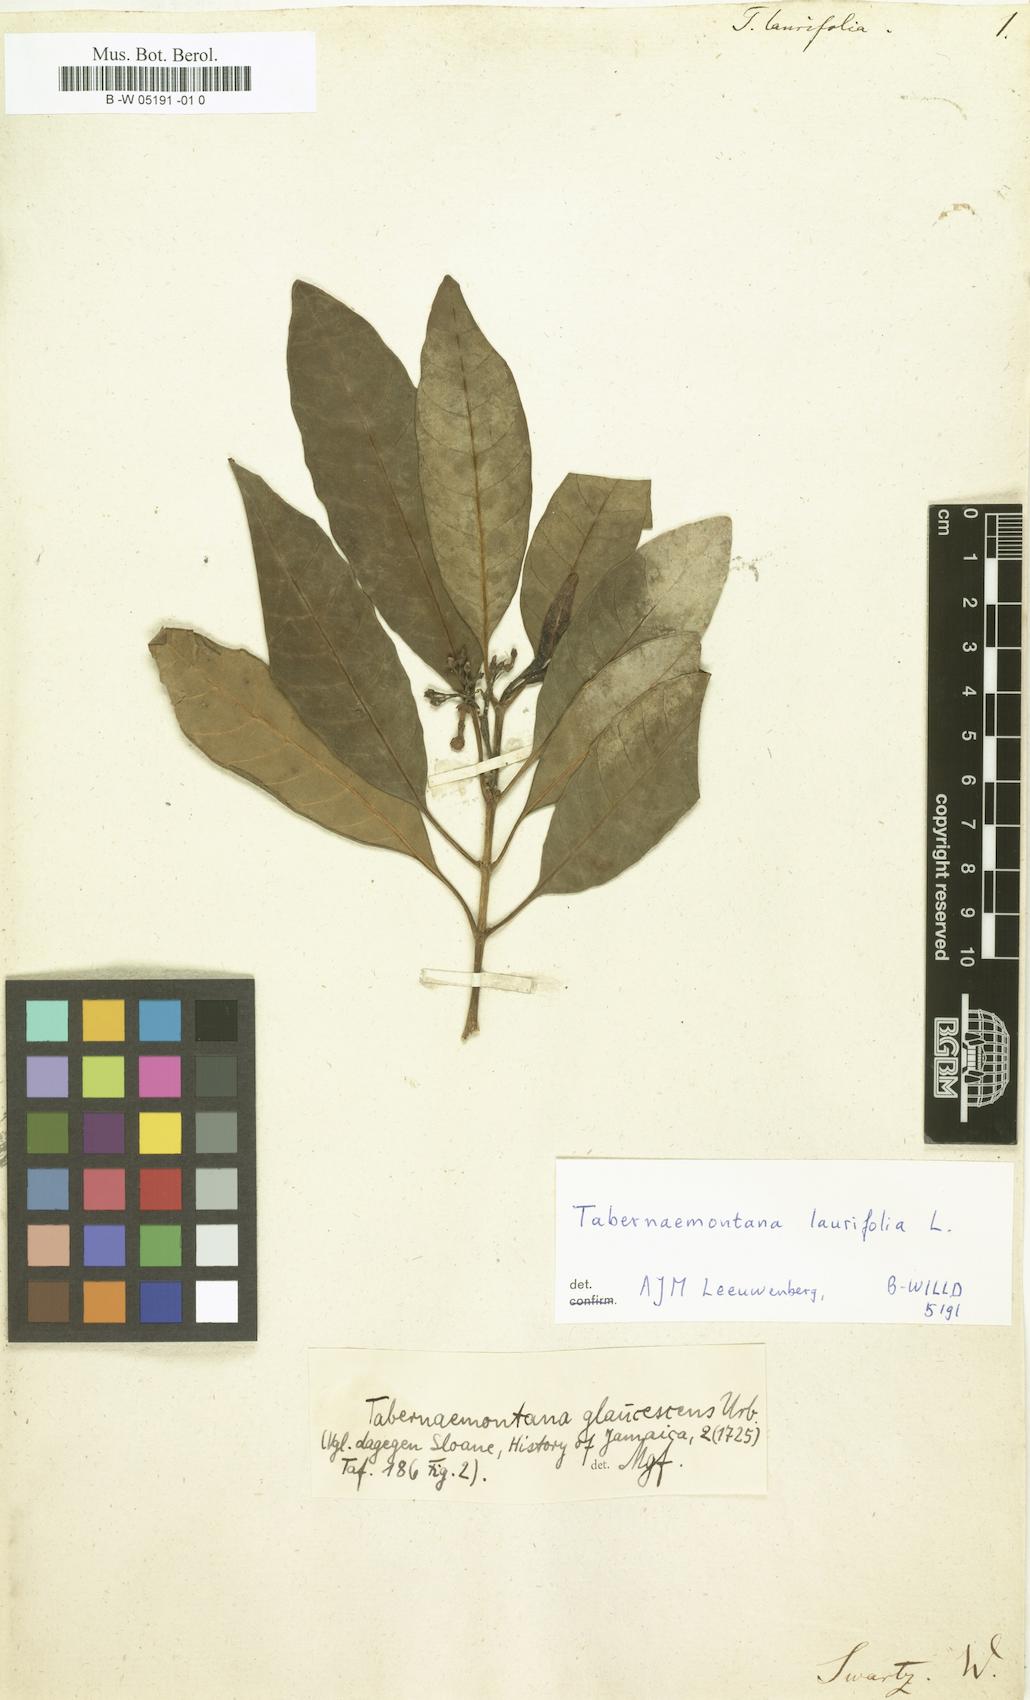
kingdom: Plantae
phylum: Tracheophyta
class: Magnoliopsida
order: Gentianales
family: Apocynaceae
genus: Tabernaemontana
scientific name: Tabernaemontana laurifolia
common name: Slingshot
